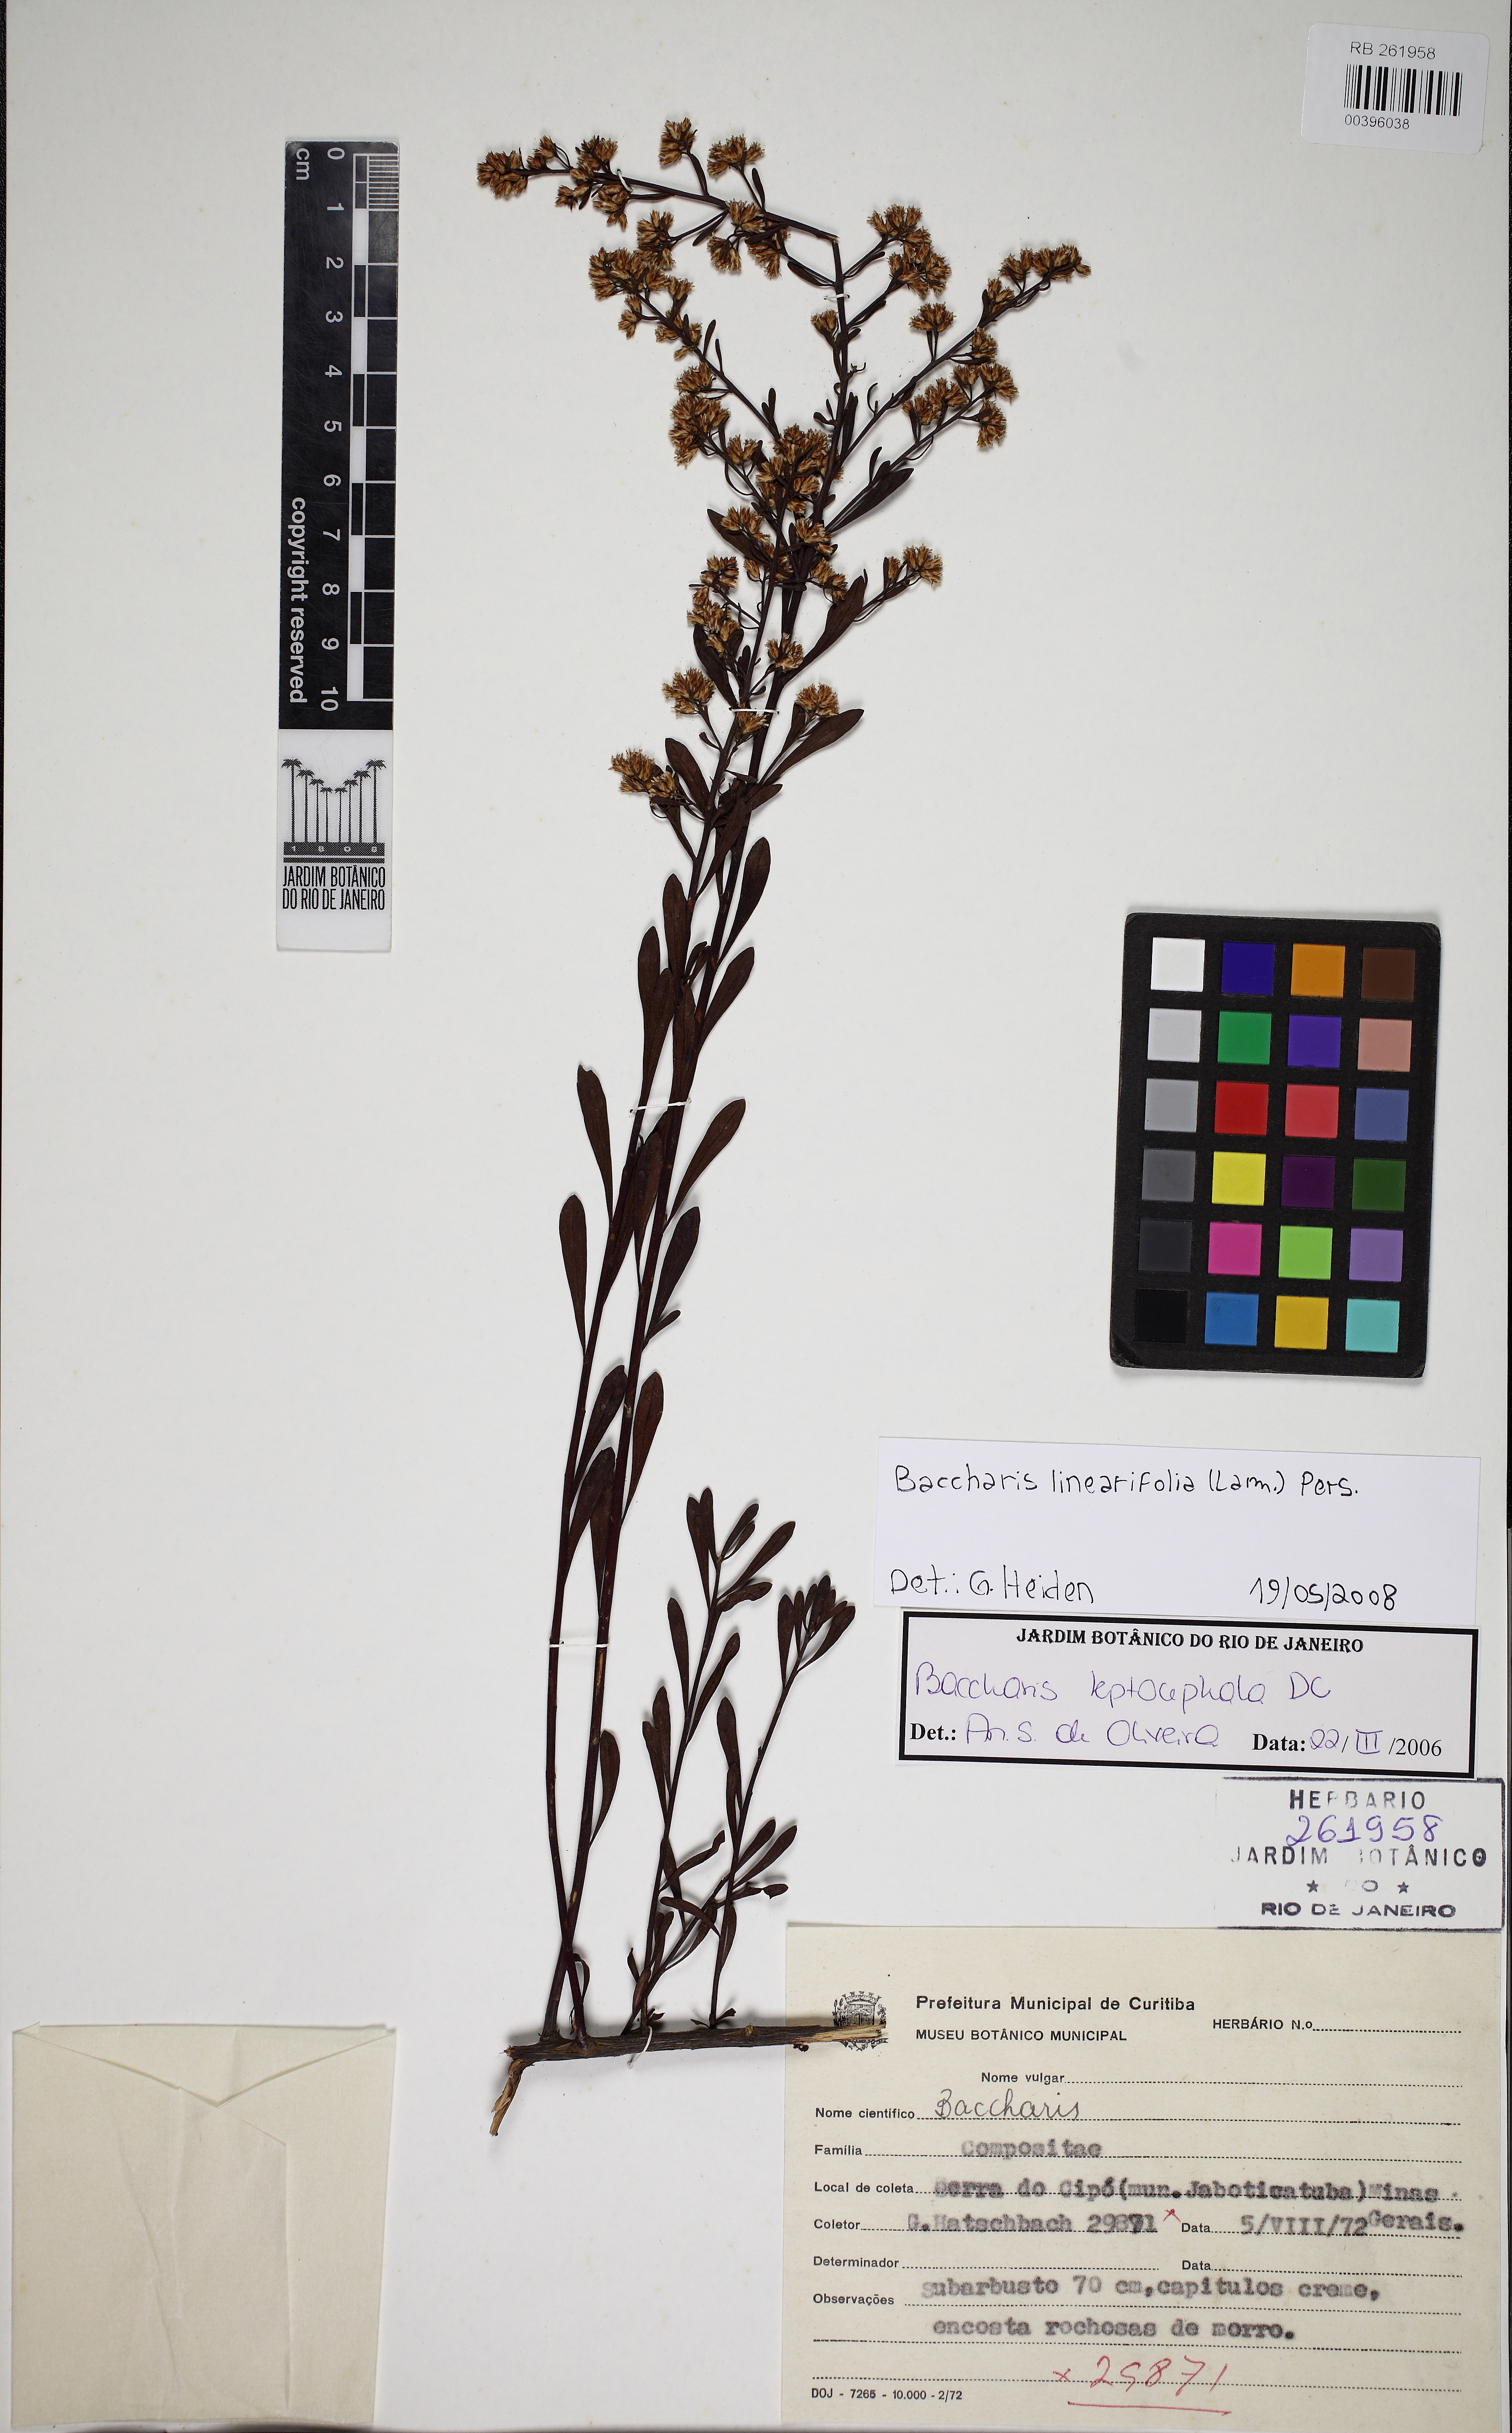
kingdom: Plantae
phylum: Tracheophyta
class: Magnoliopsida
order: Asterales
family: Asteraceae
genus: Baccharis
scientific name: Baccharis
